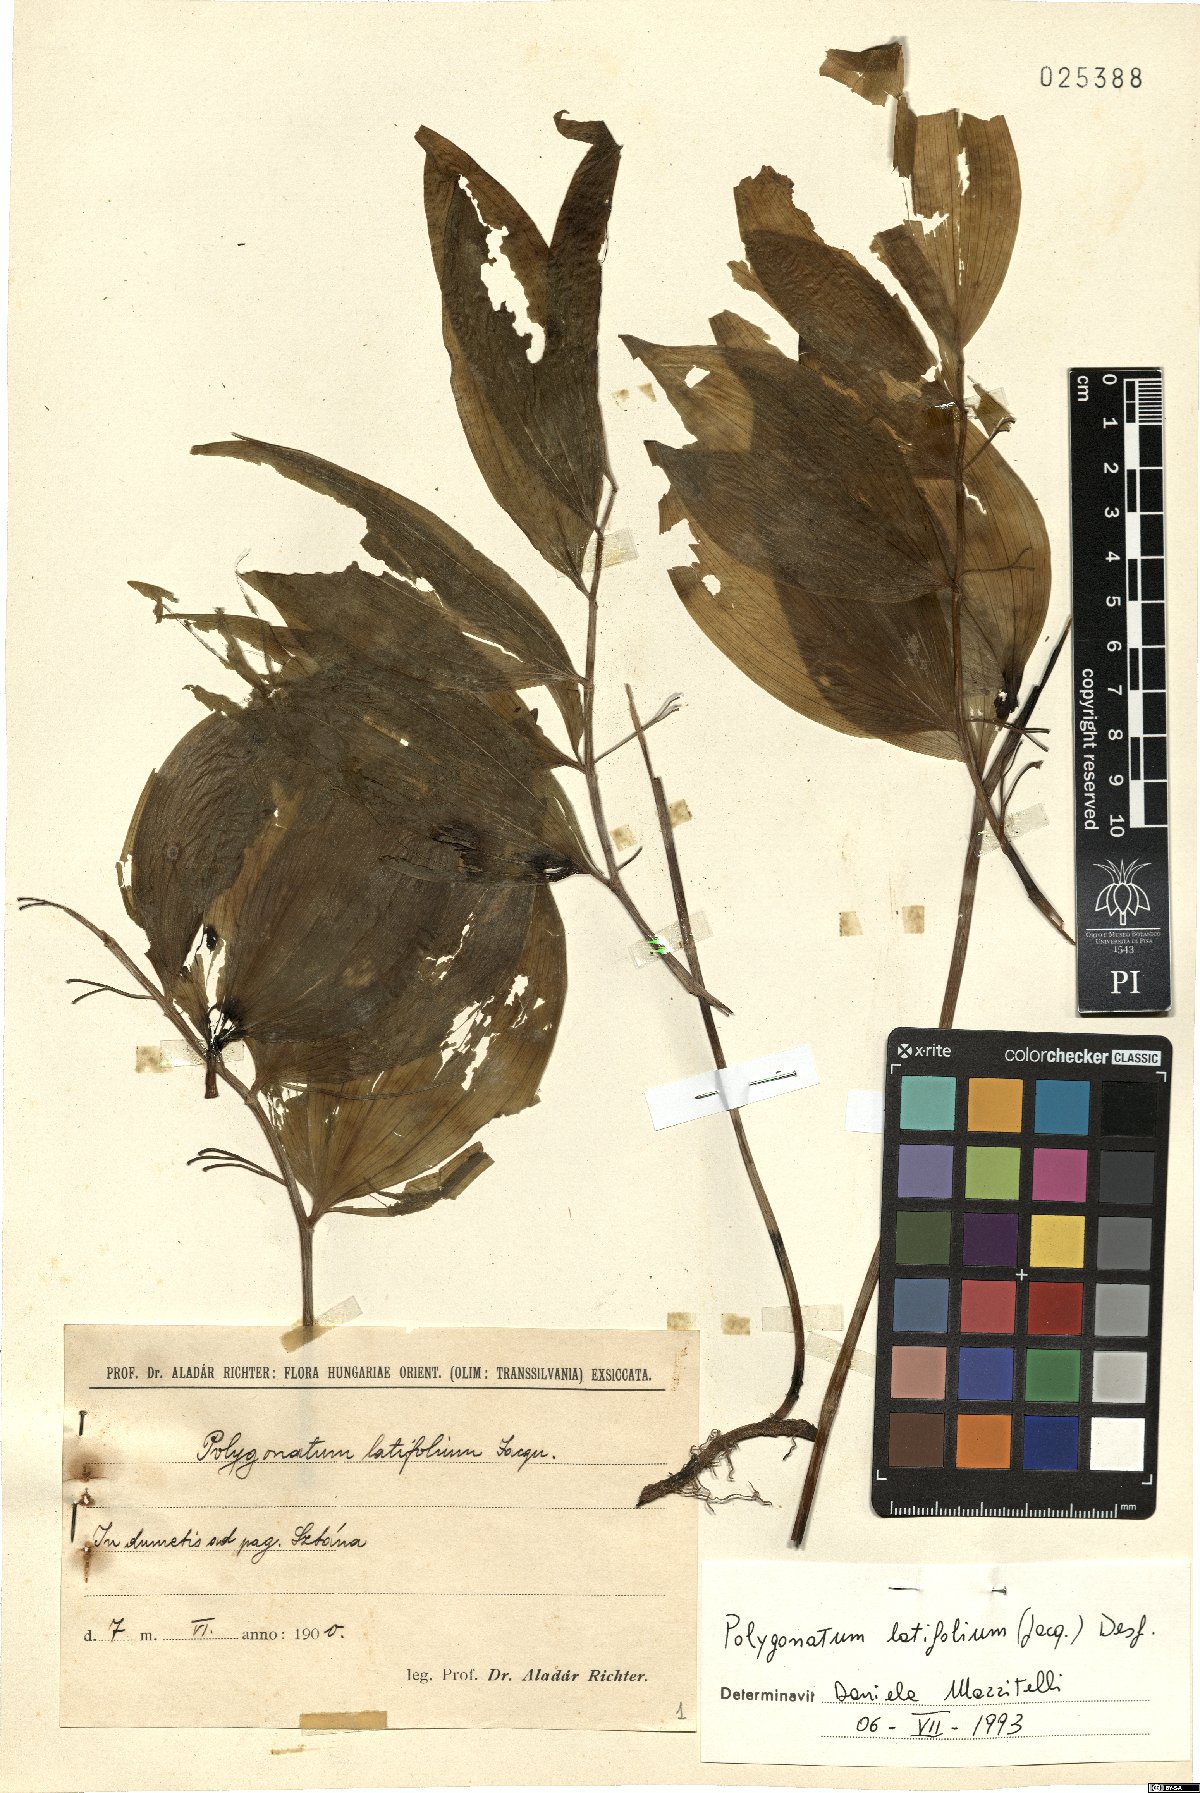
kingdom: Plantae
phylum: Tracheophyta
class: Liliopsida
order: Asparagales
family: Asparagaceae
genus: Polygonatum
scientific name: Polygonatum latifolium
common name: Broadleaf solomon's seal
